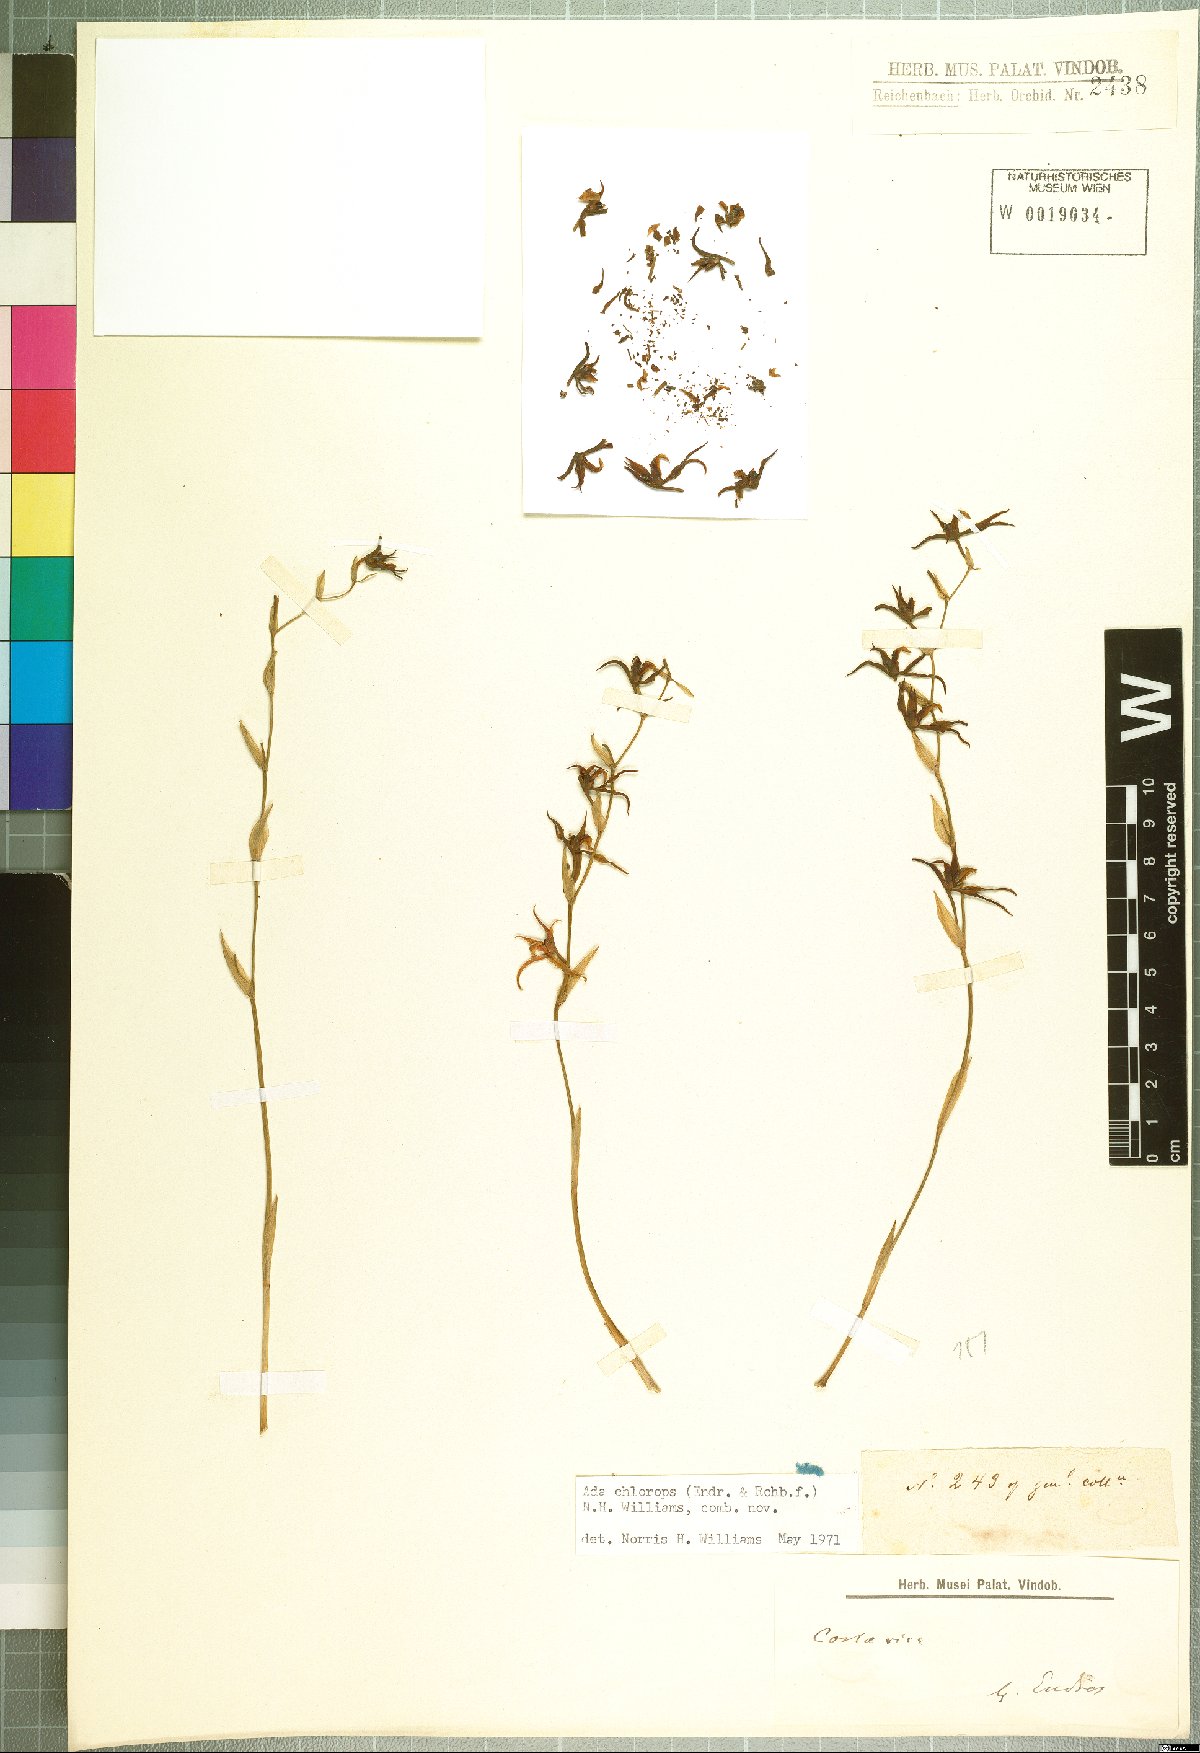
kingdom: Plantae
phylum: Tracheophyta
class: Liliopsida
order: Asparagales
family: Orchidaceae
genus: Brassia
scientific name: Brassia chlorops
